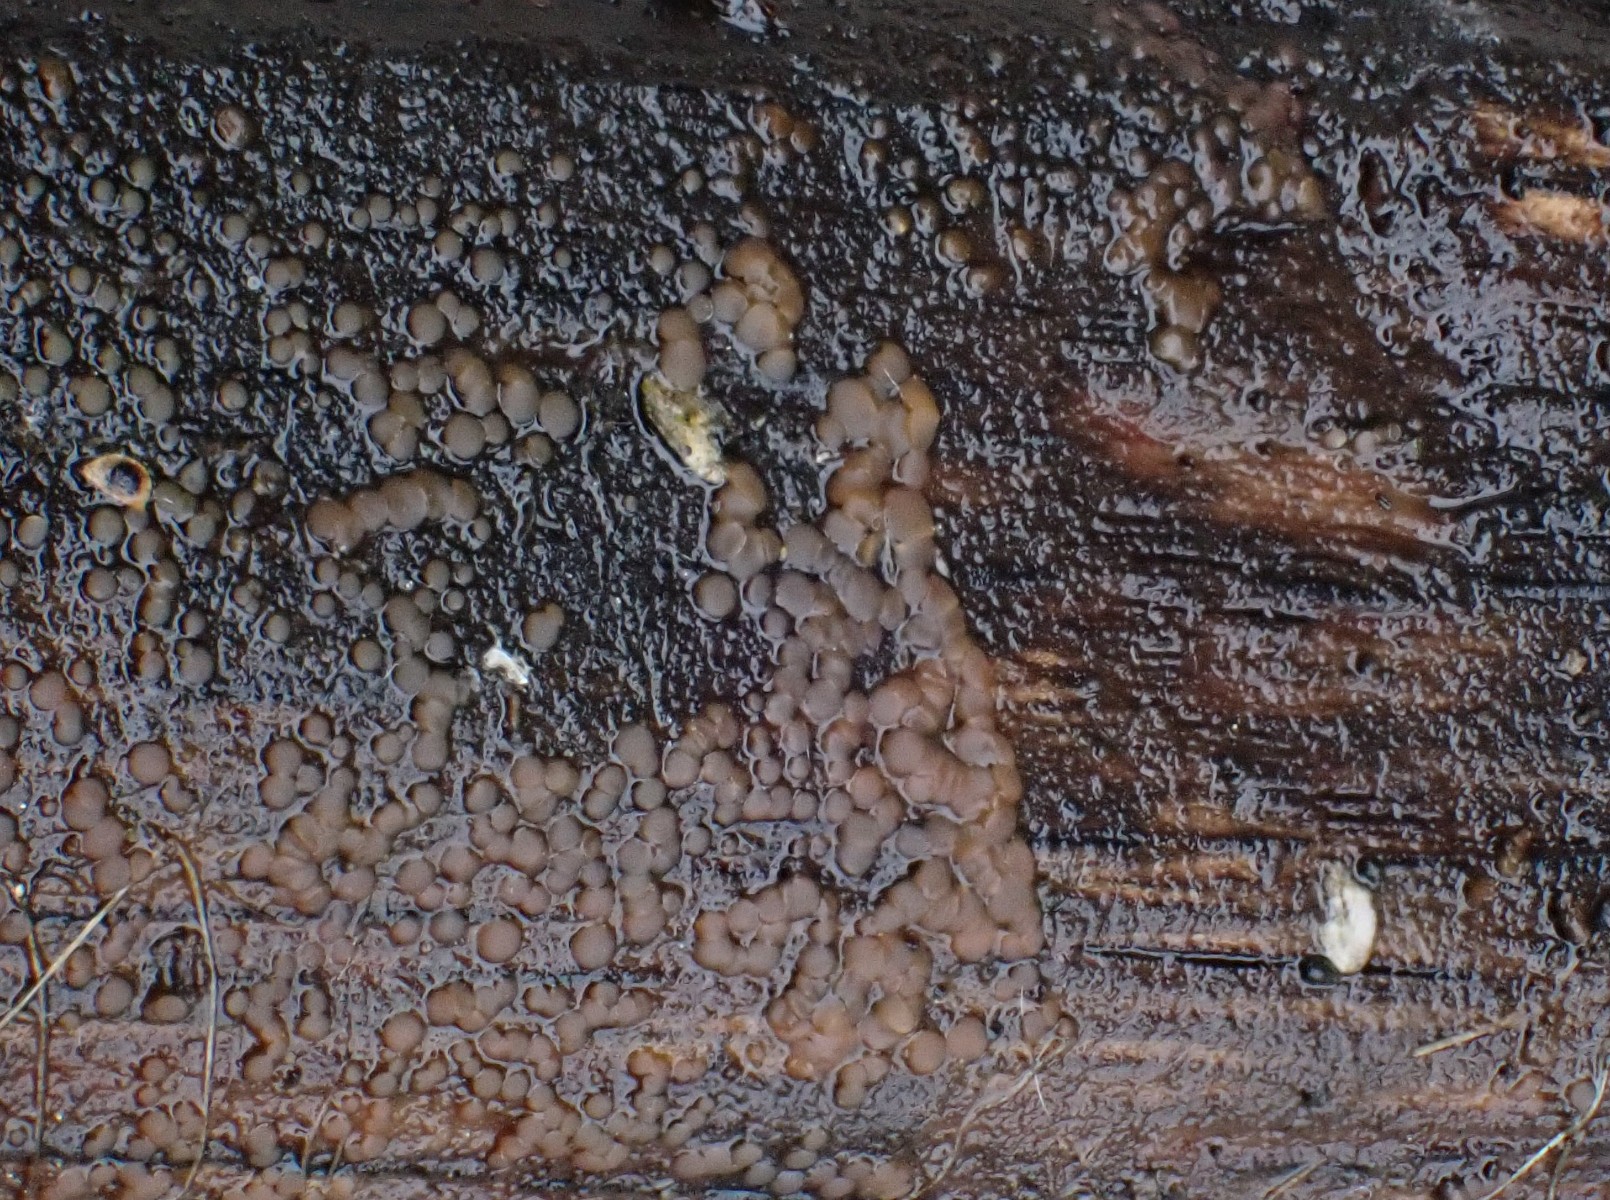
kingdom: Fungi
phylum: Ascomycota
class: Orbiliomycetes
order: Orbiliales
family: Orbiliaceae
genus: Orbilia
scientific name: Orbilia sarraziniana
